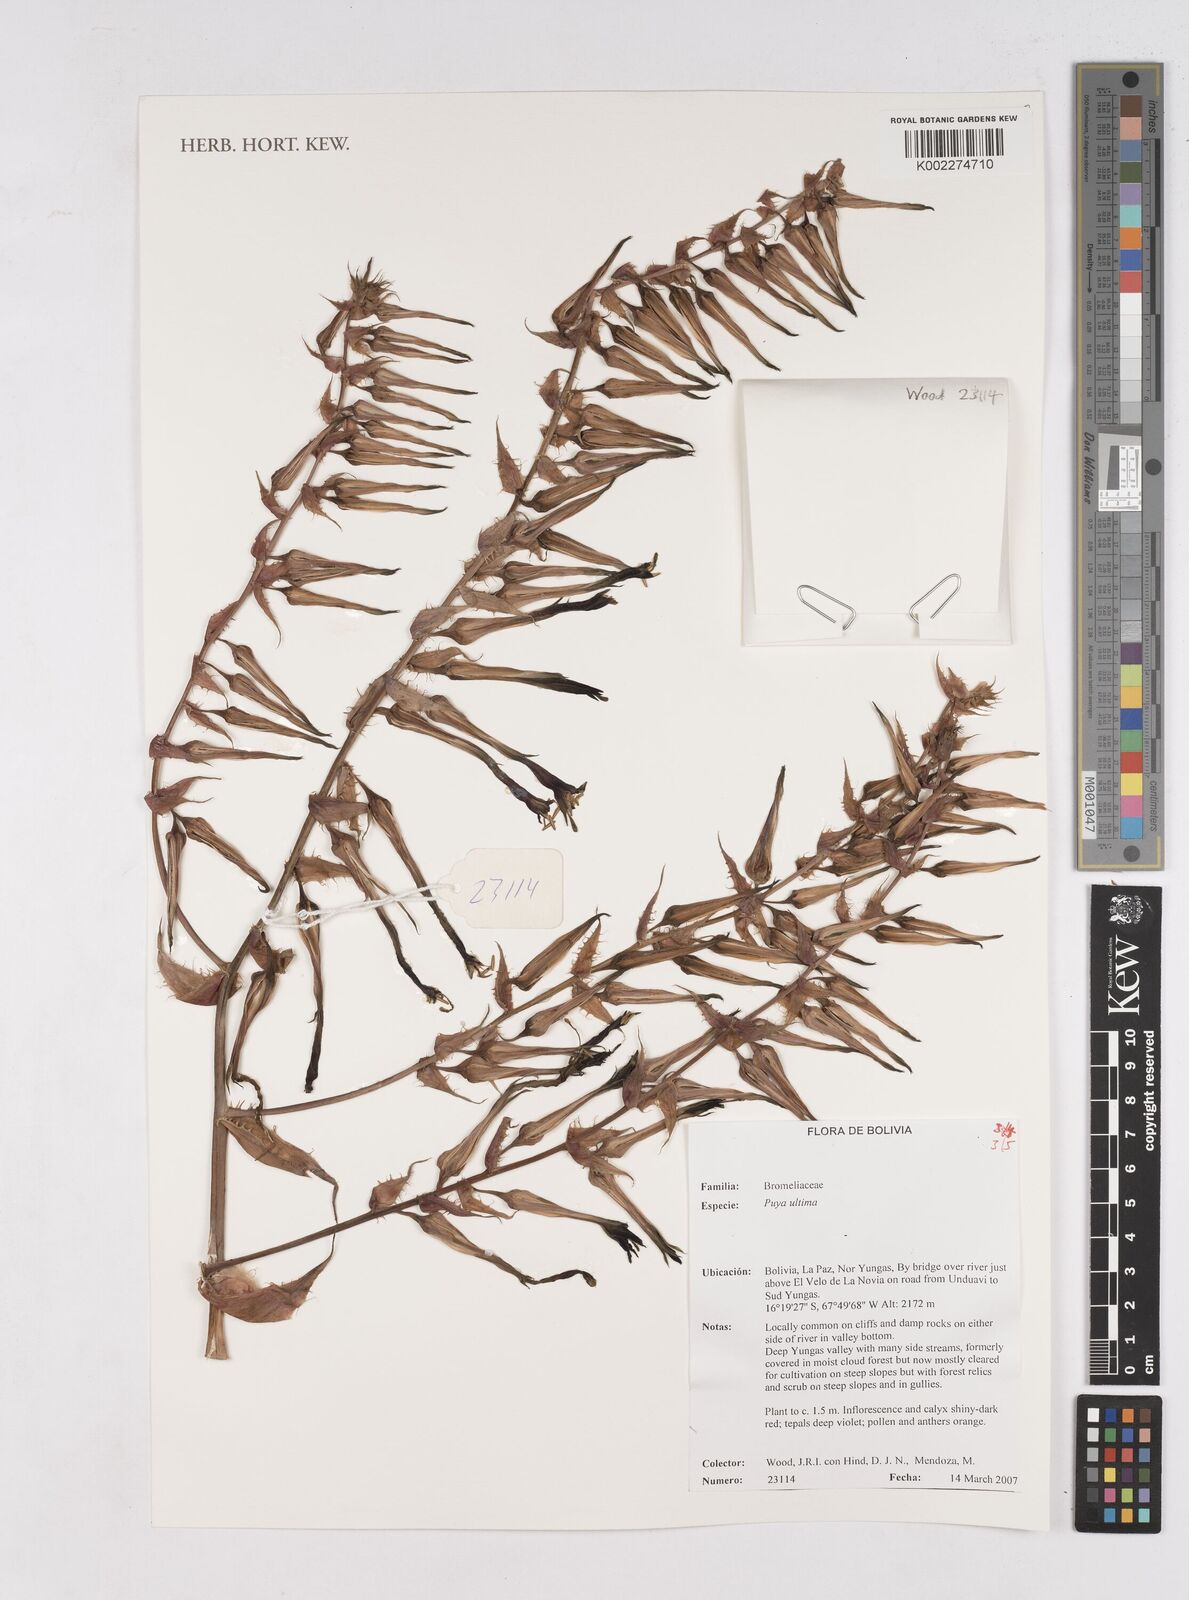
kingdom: Plantae
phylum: Tracheophyta
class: Liliopsida
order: Poales
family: Bromeliaceae
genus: Puya
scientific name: Puya
